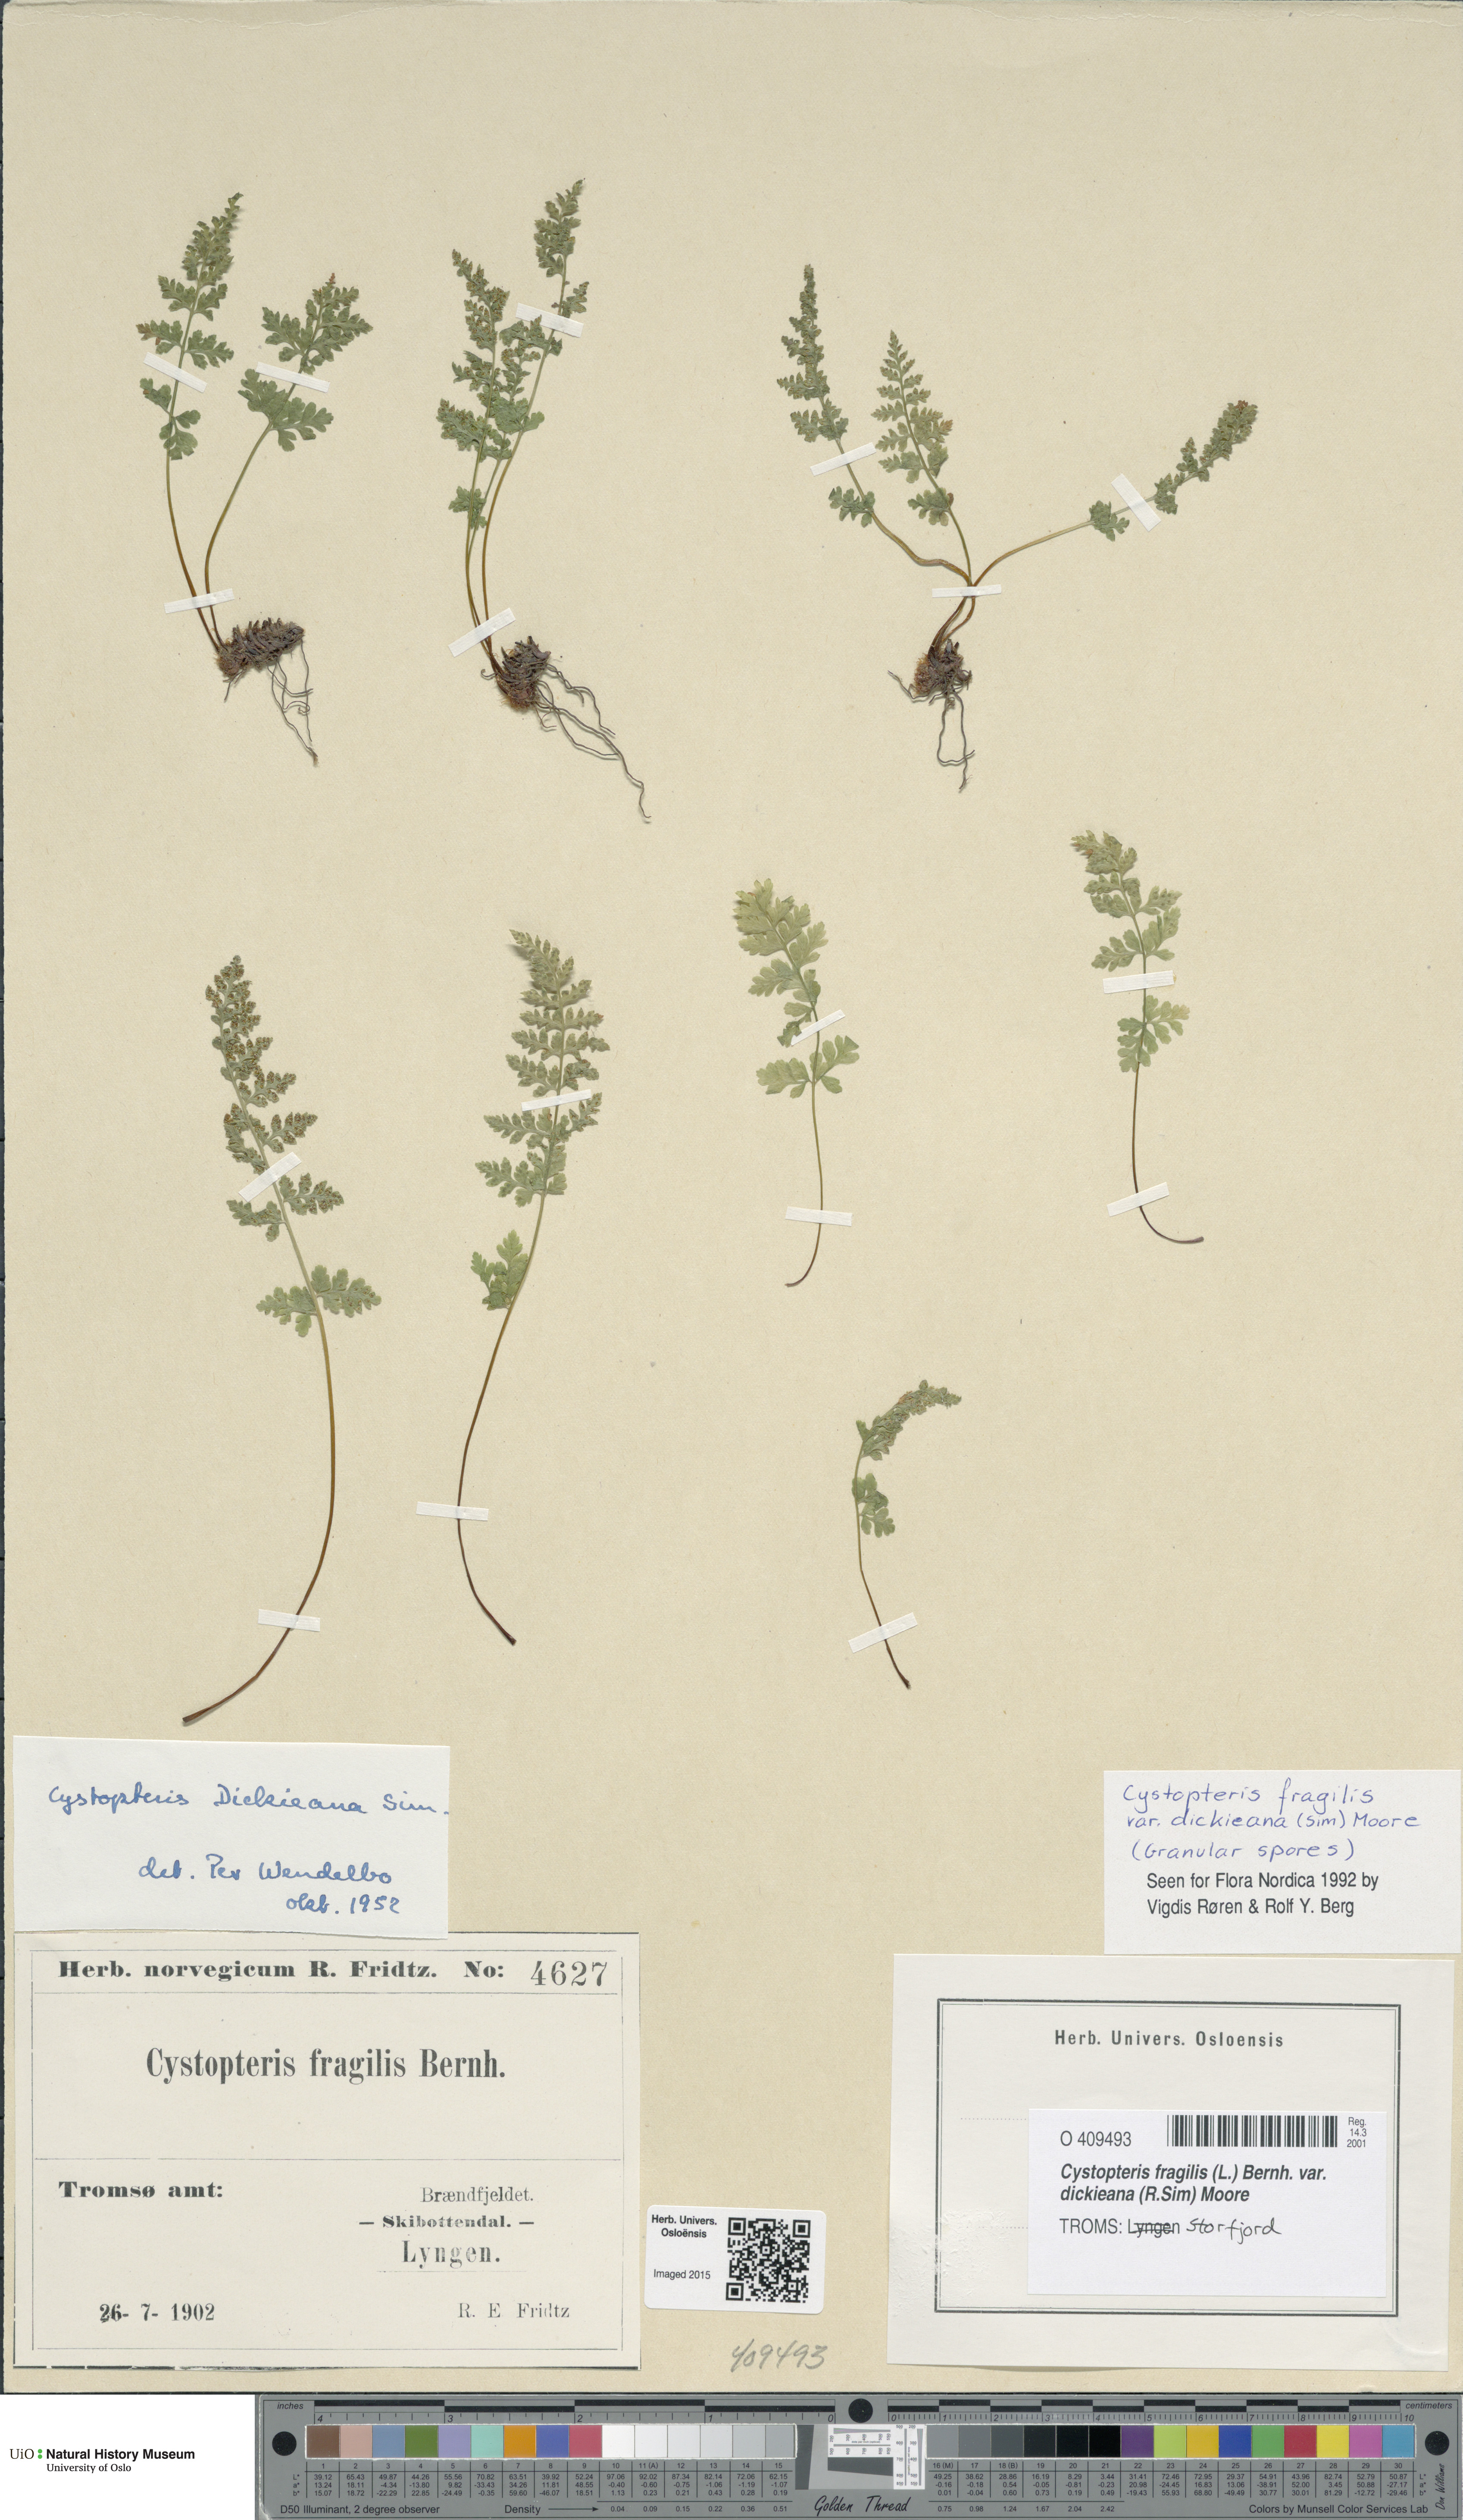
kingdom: Plantae
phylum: Tracheophyta
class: Polypodiopsida
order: Polypodiales
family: Cystopteridaceae
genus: Cystopteris
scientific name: Cystopteris dickieana
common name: Dickie's bladder-fern
